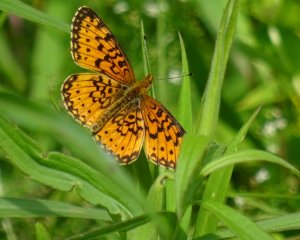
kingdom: Animalia
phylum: Arthropoda
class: Insecta
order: Lepidoptera
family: Nymphalidae
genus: Boloria
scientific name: Boloria selene
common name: Silver-bordered Fritillary
